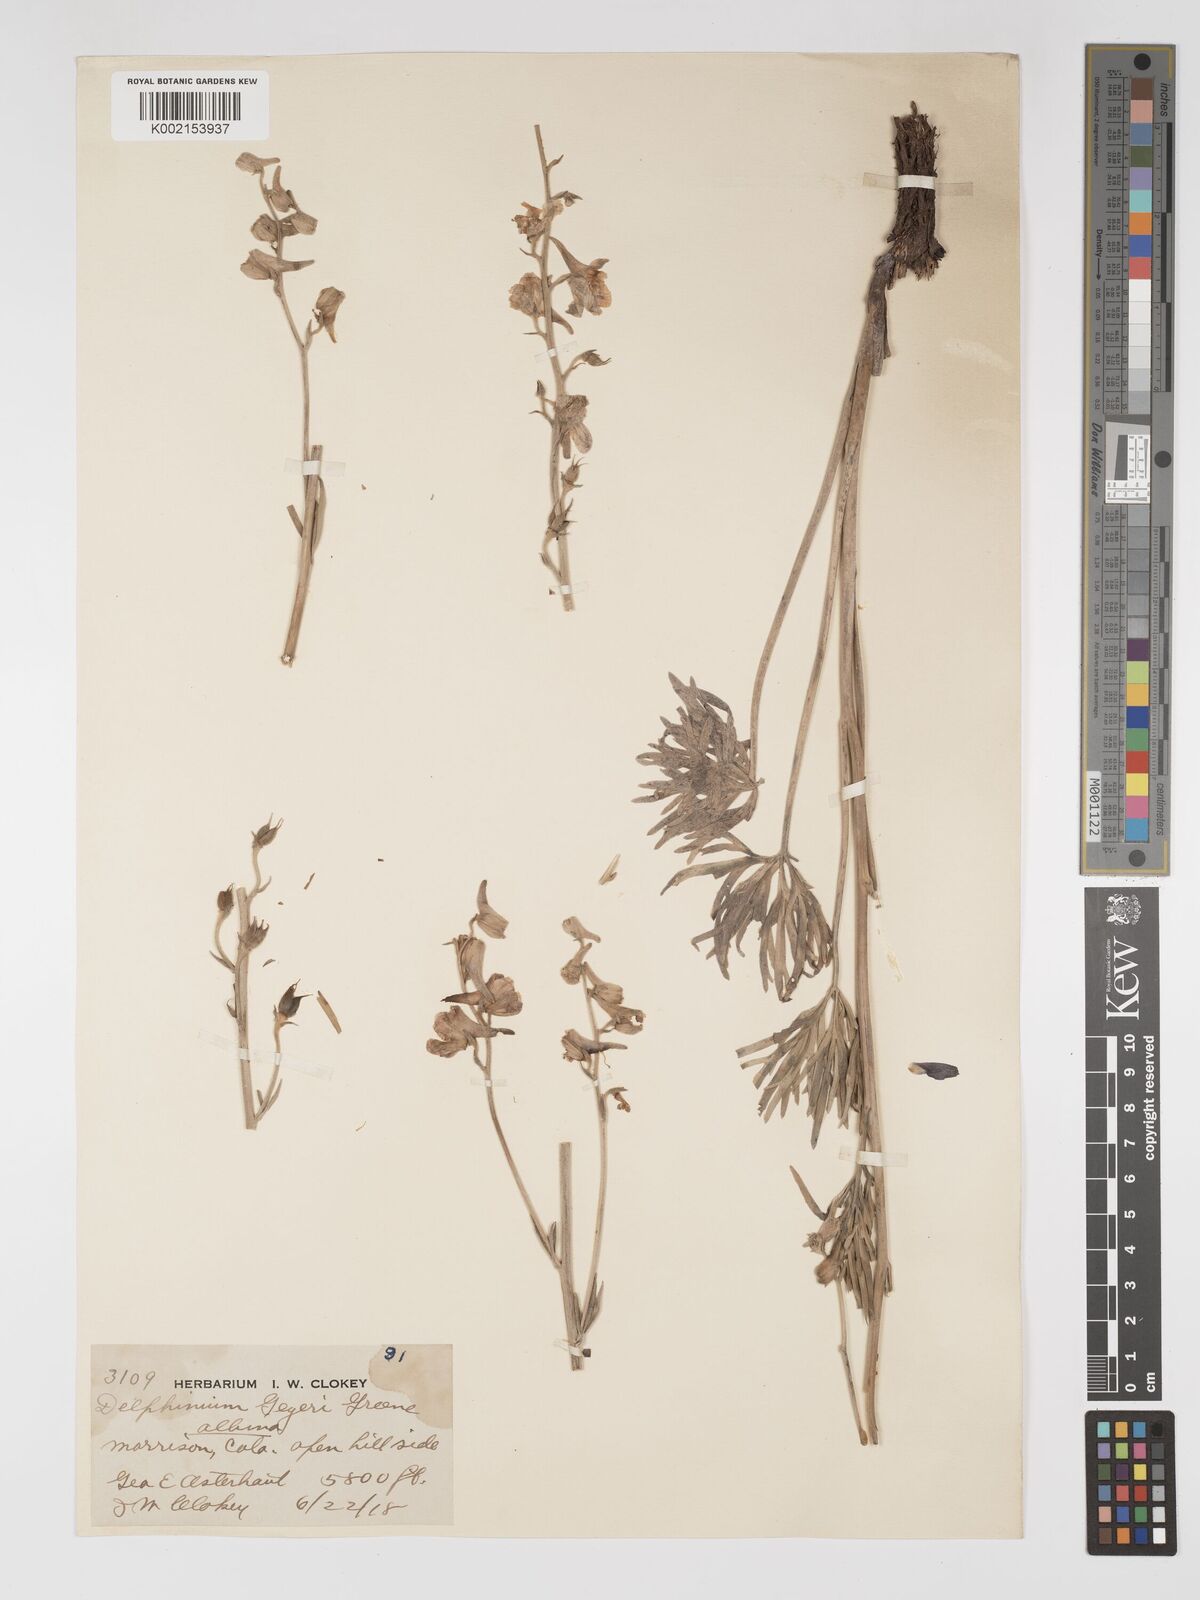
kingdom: Plantae
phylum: Tracheophyta
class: Magnoliopsida
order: Ranunculales
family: Ranunculaceae
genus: Delphinium
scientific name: Delphinium geyeri
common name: Geyer's larkspur
